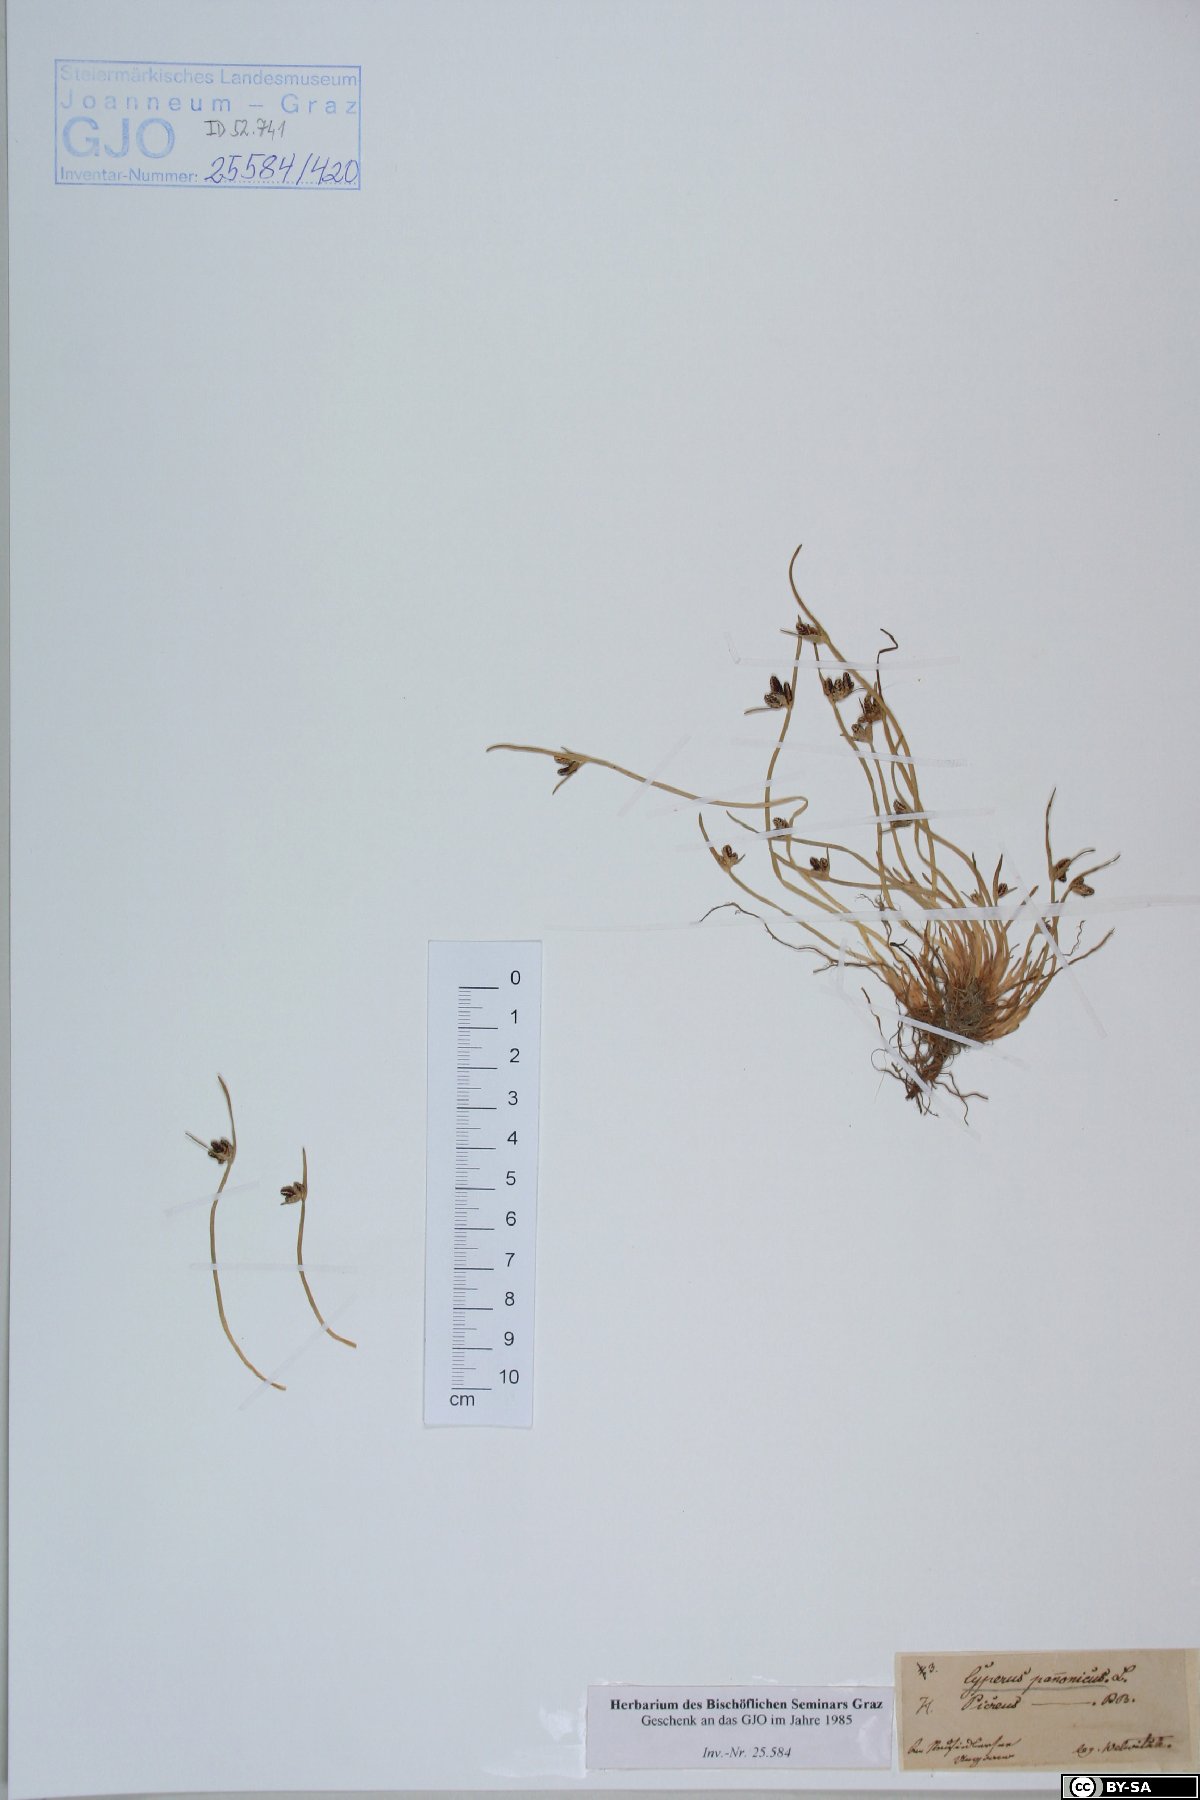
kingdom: Plantae
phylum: Tracheophyta
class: Liliopsida
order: Poales
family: Cyperaceae
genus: Cyperus
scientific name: Cyperus pannonicus
